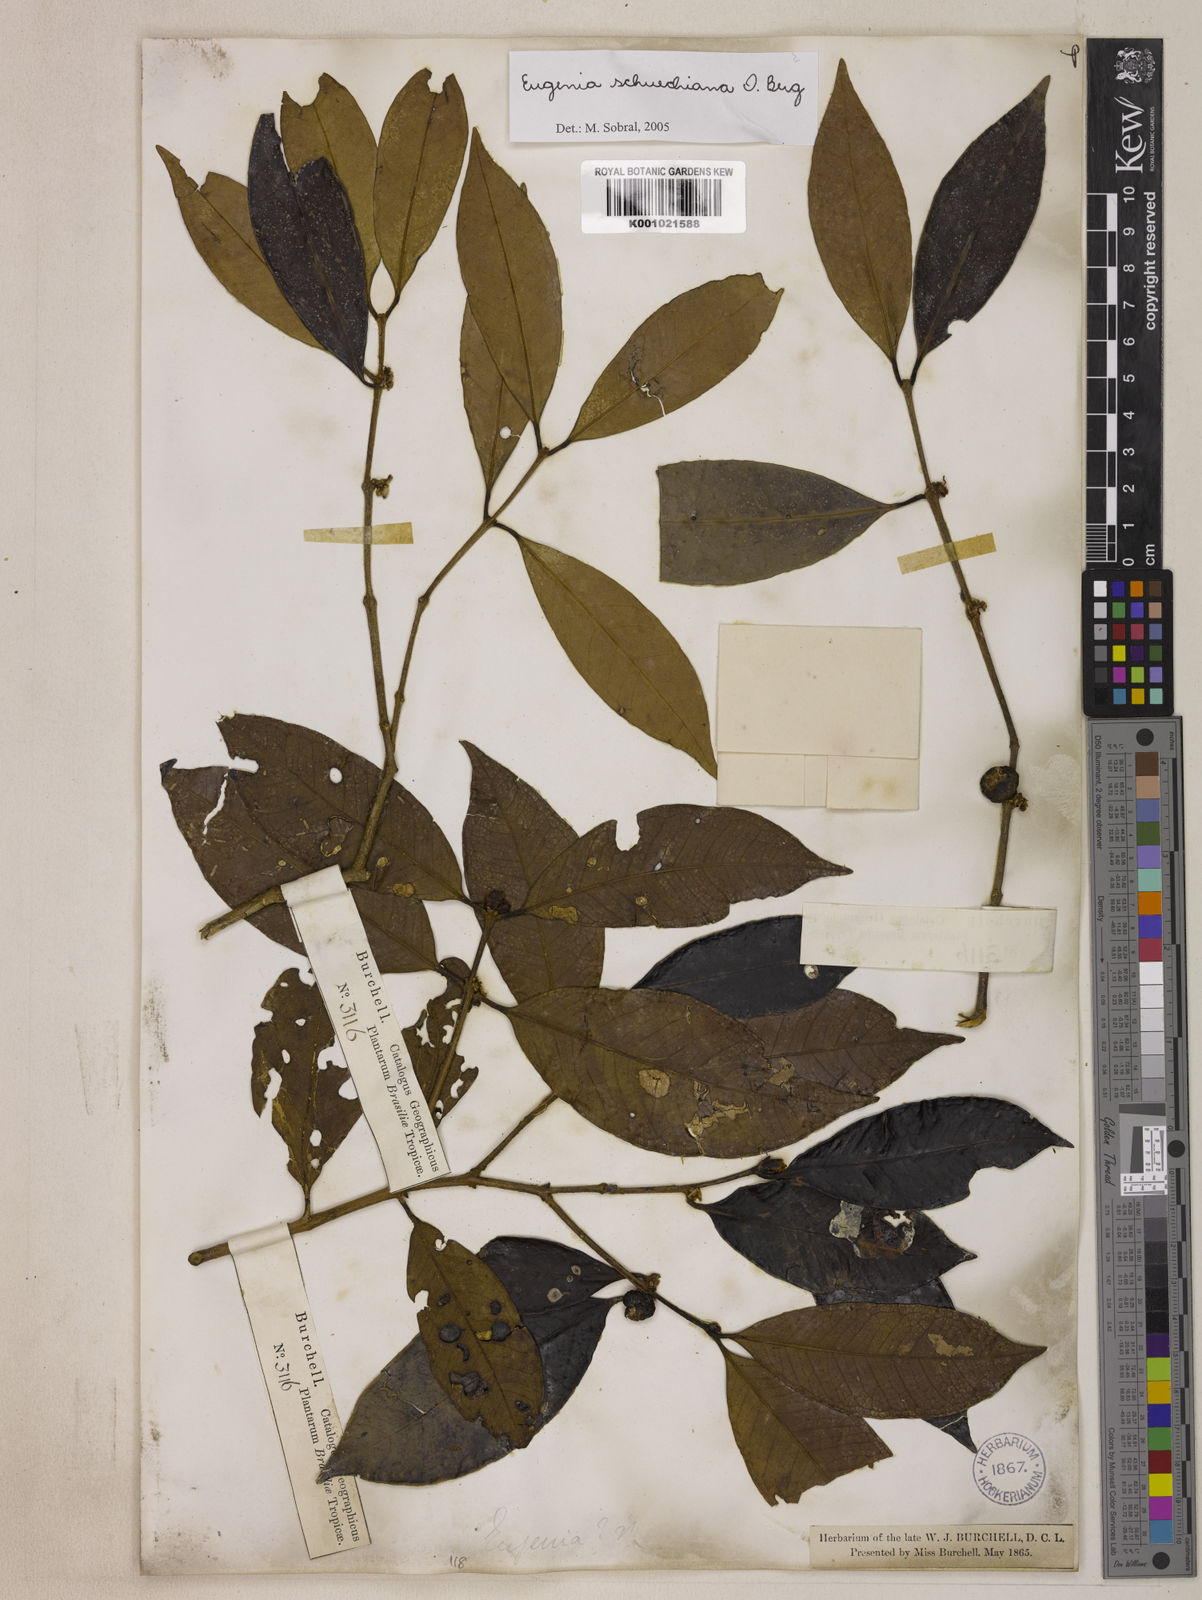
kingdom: Plantae
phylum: Tracheophyta
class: Magnoliopsida
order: Myrtales
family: Myrtaceae
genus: Eugenia
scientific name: Eugenia verticillata
